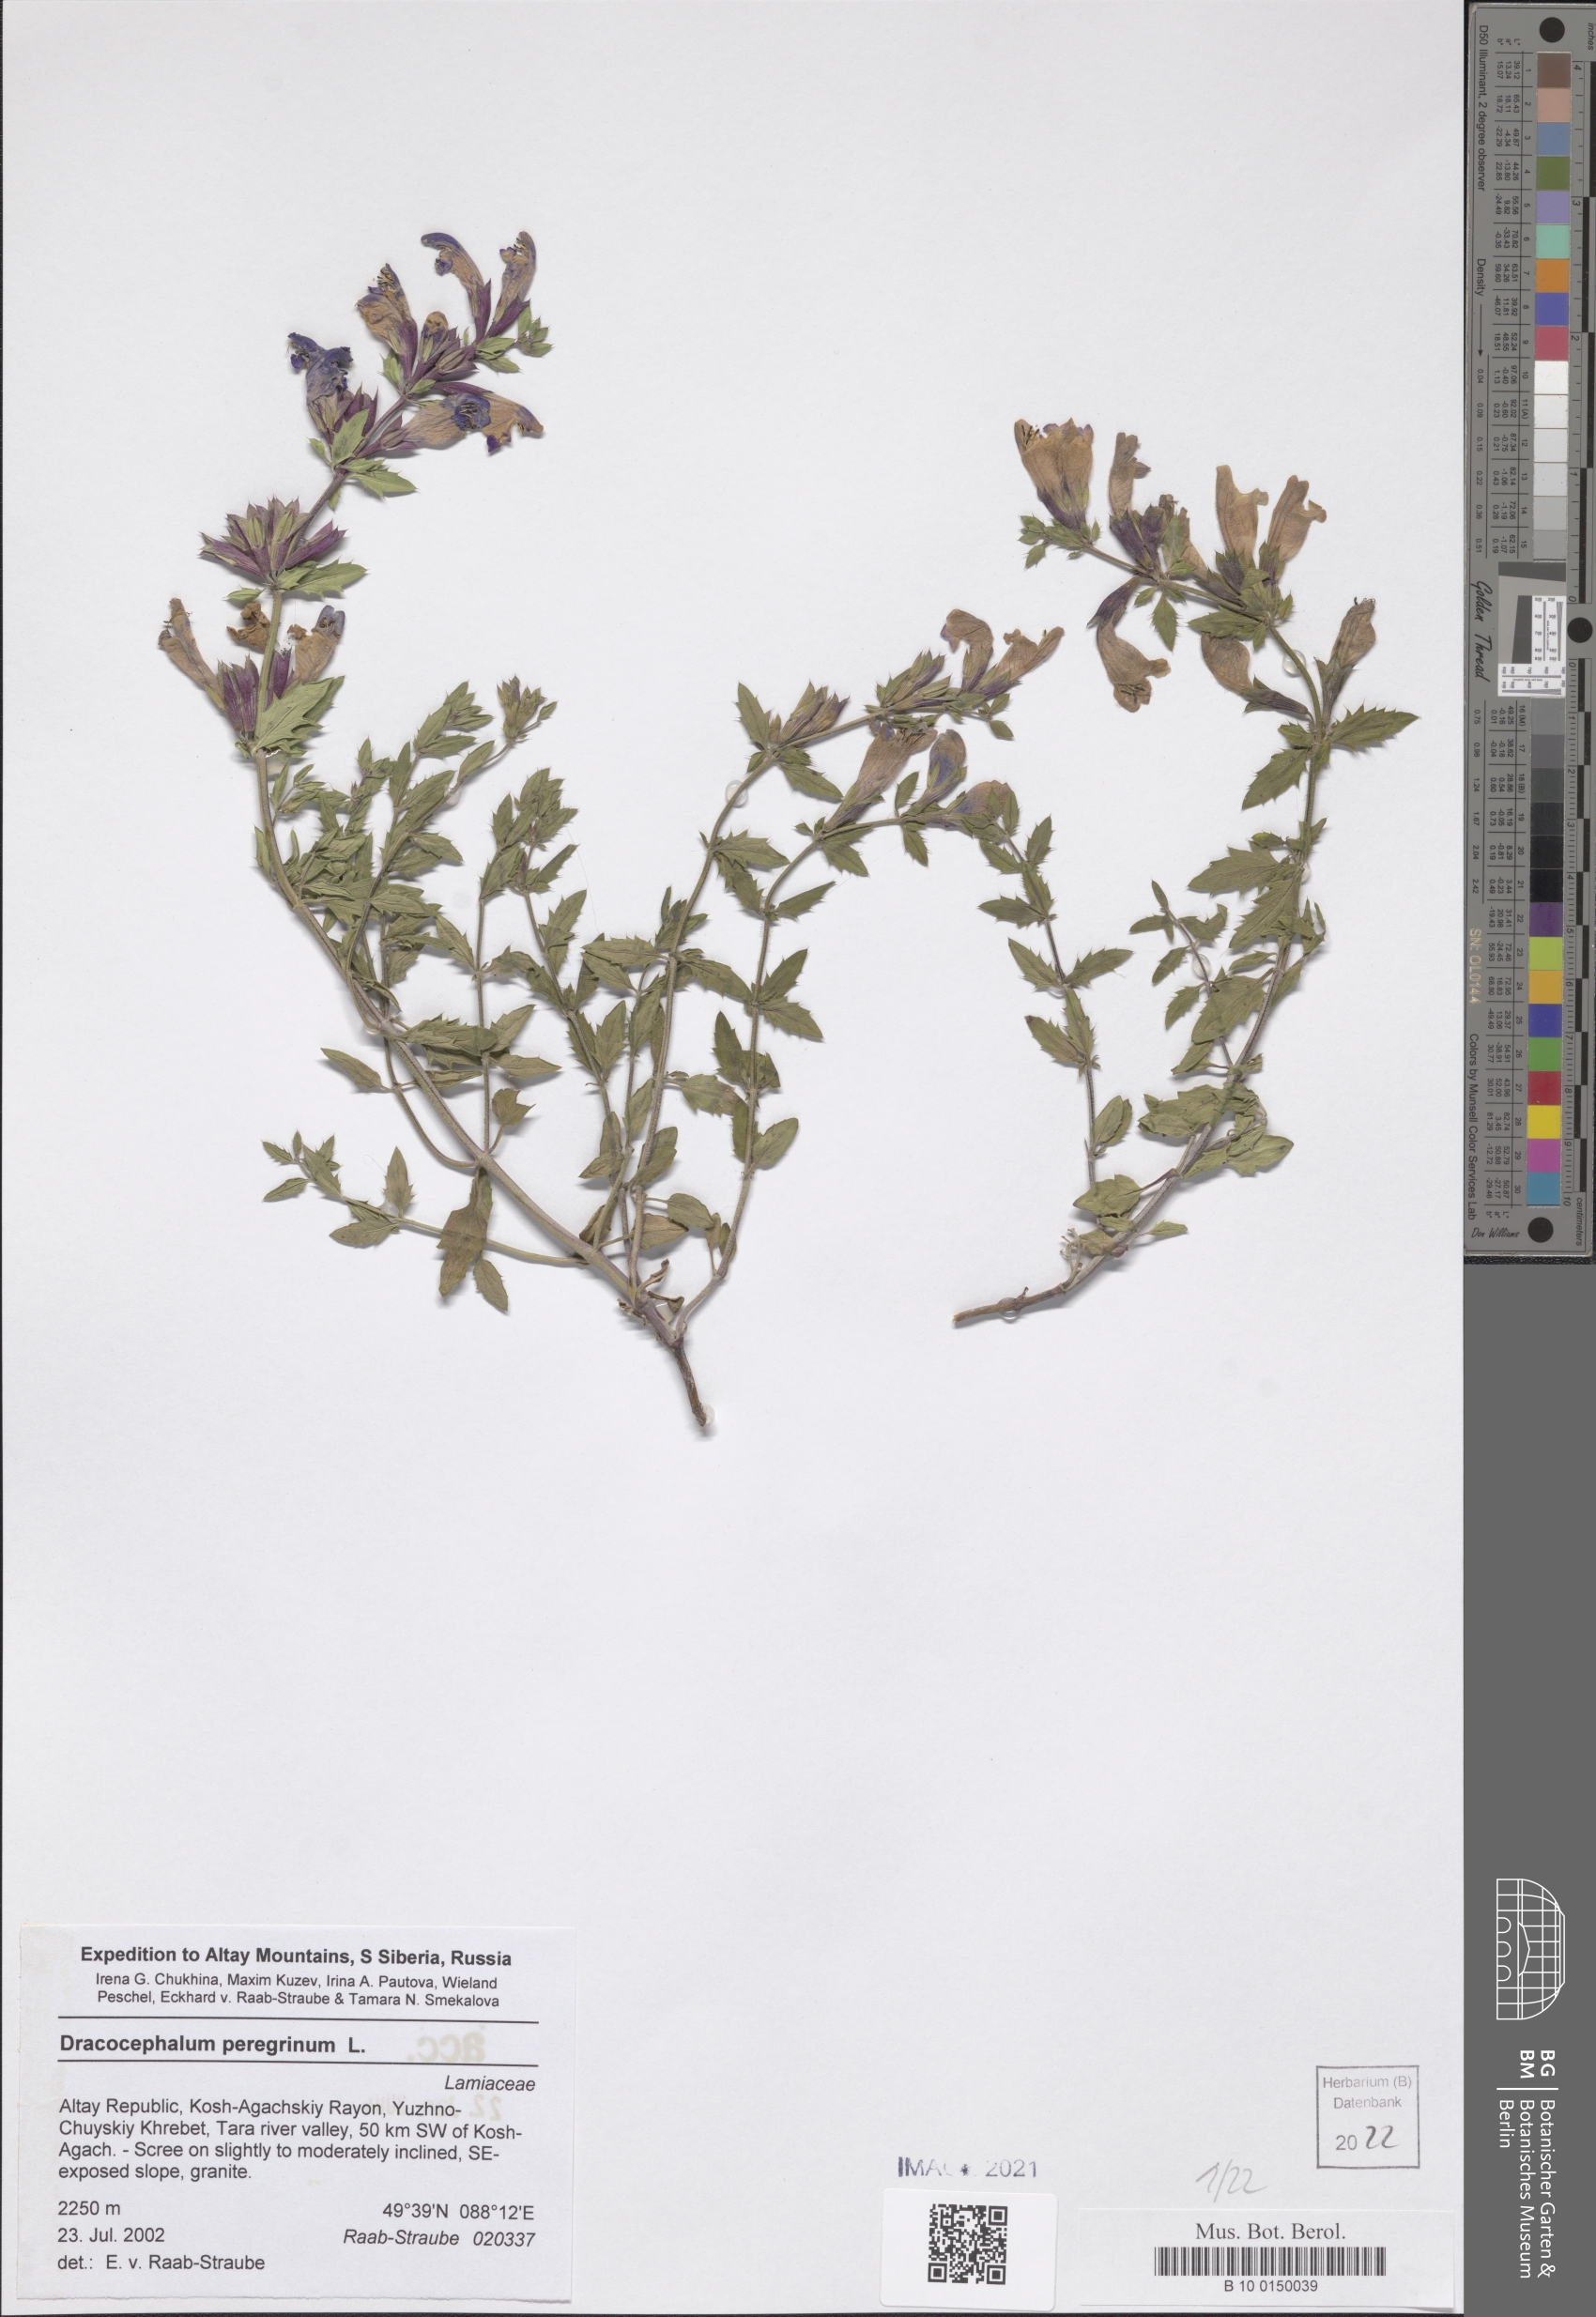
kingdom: Plantae
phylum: Tracheophyta
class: Magnoliopsida
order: Lamiales
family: Lamiaceae
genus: Dracocephalum
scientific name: Dracocephalum peregrinum
